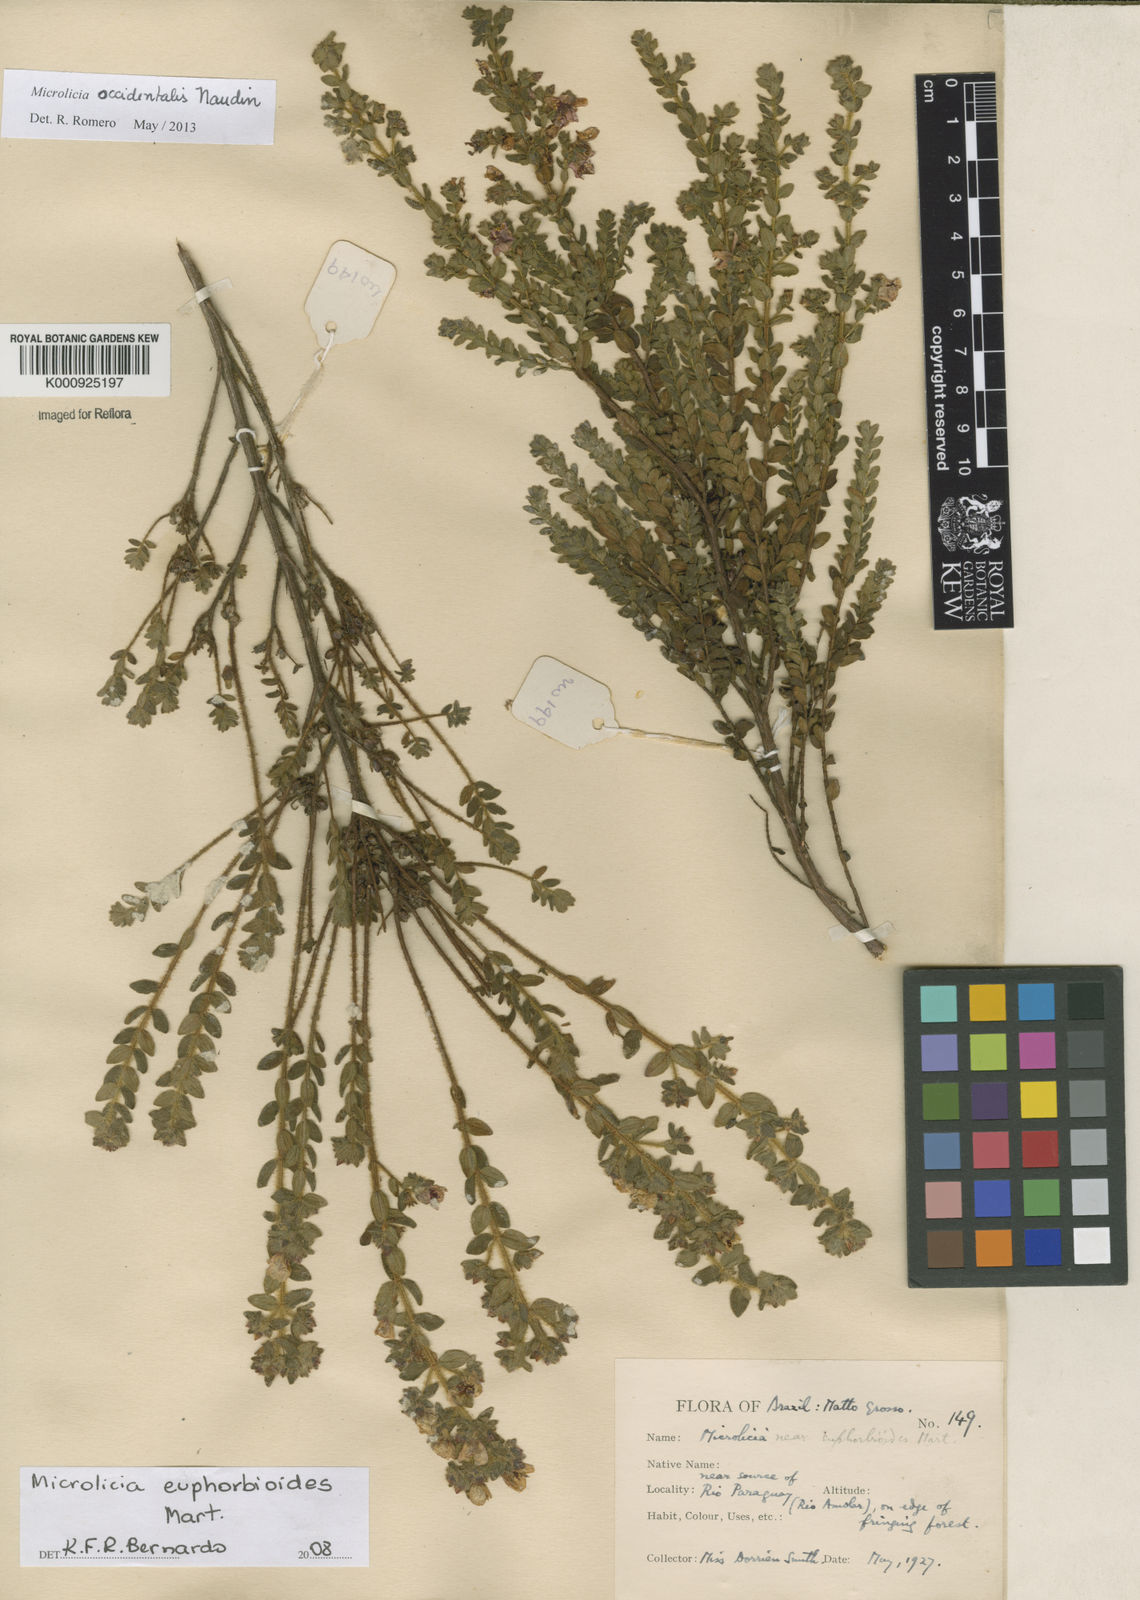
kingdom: Plantae
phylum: Tracheophyta
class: Magnoliopsida
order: Myrtales
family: Melastomataceae
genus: Microlicia
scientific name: Microlicia occidentalis
